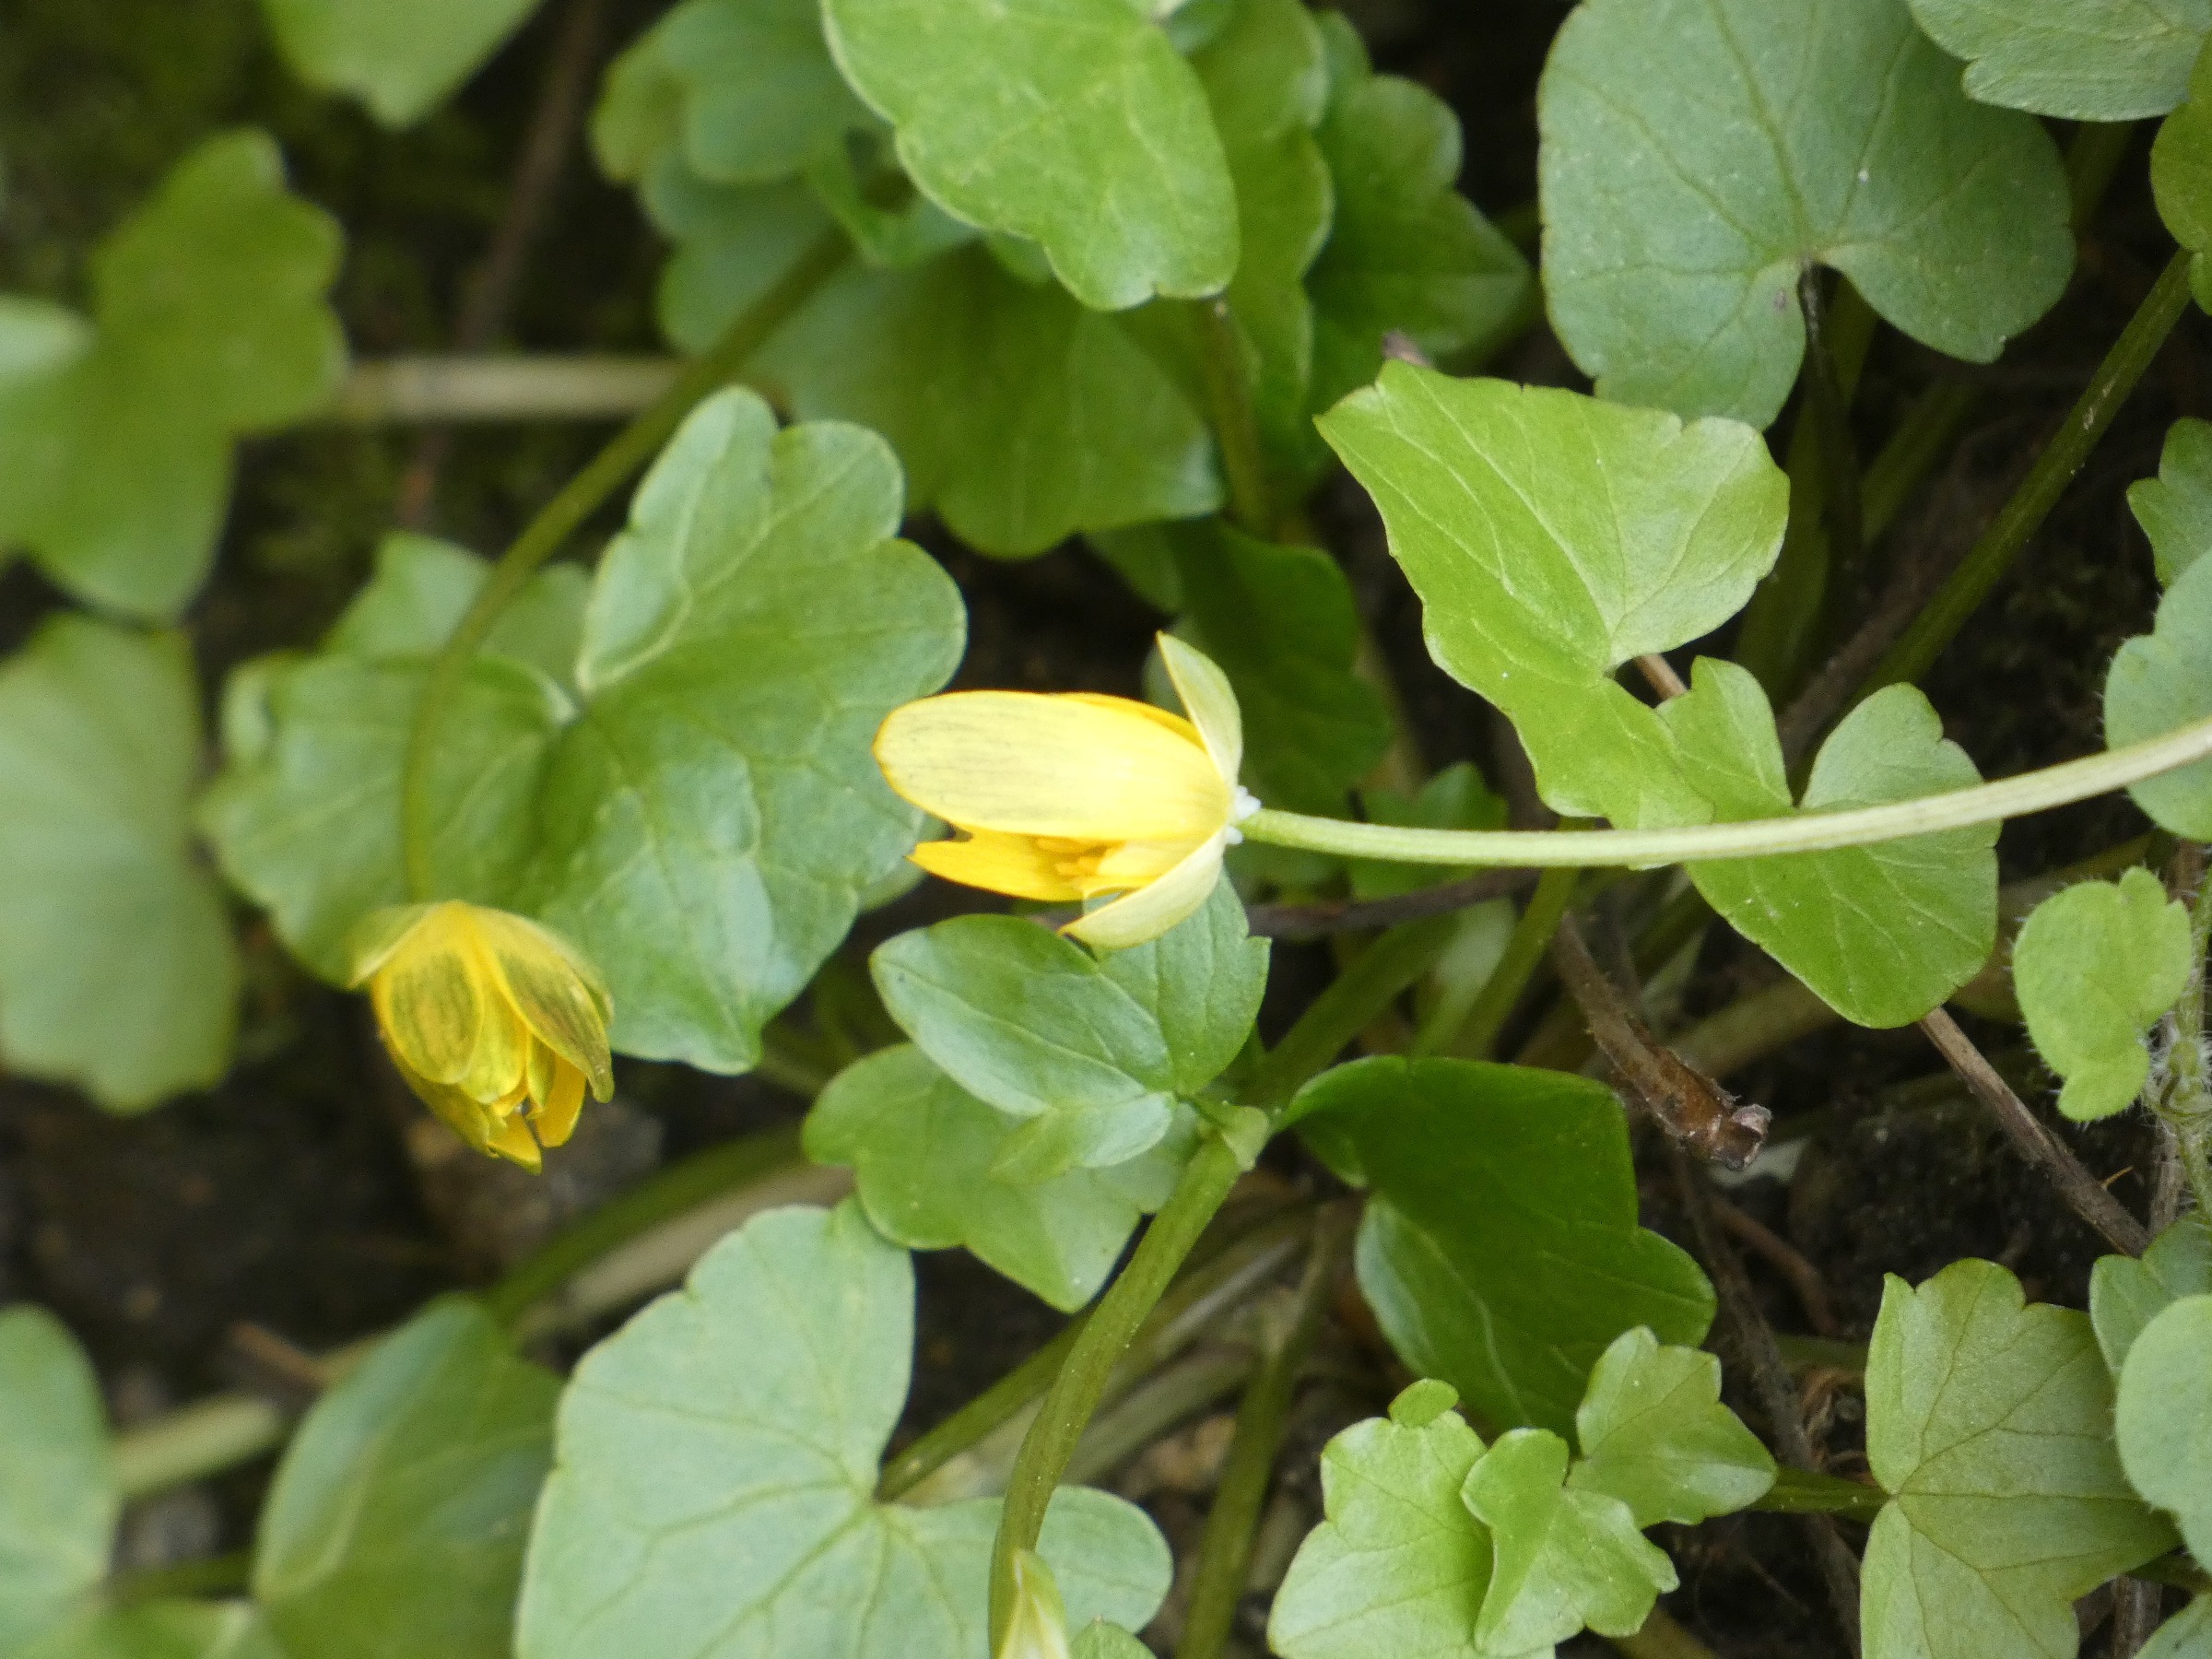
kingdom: Plantae
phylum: Tracheophyta
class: Magnoliopsida
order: Ranunculales
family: Ranunculaceae
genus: Ficaria
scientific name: Ficaria verna
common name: Vorterod
